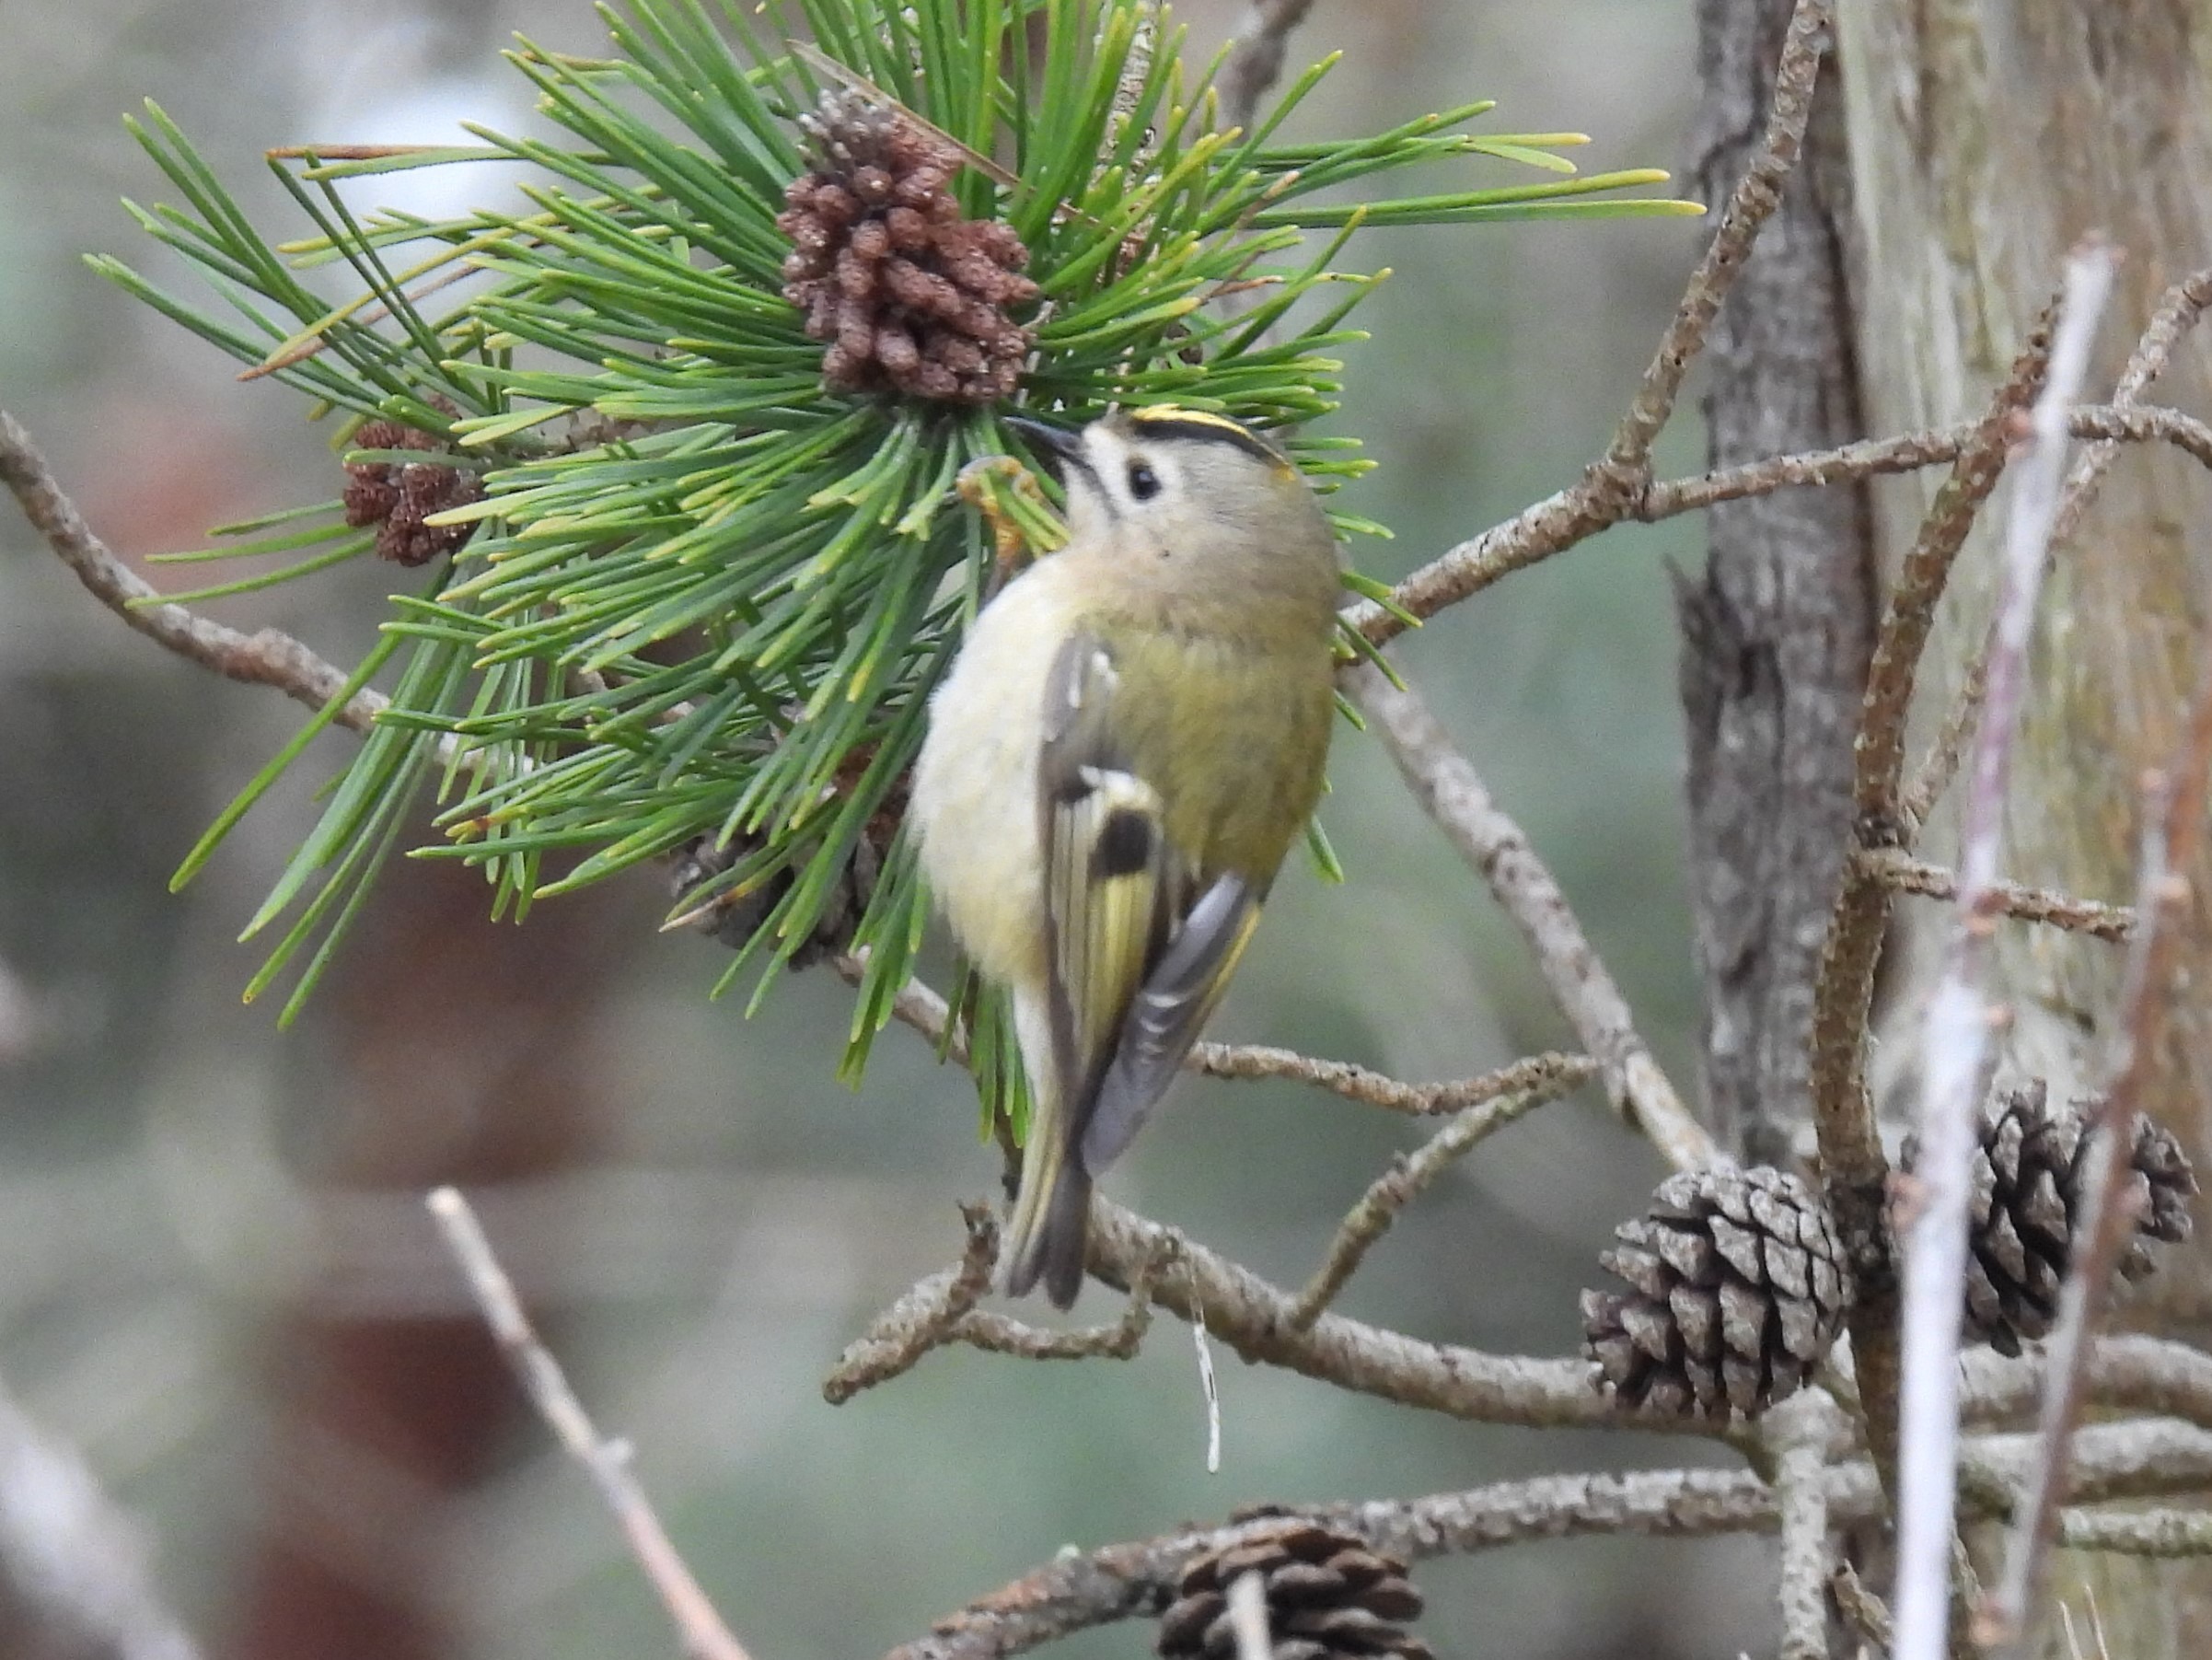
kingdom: Animalia
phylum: Chordata
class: Aves
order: Passeriformes
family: Regulidae
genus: Regulus
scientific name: Regulus regulus
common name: Fuglekonge
